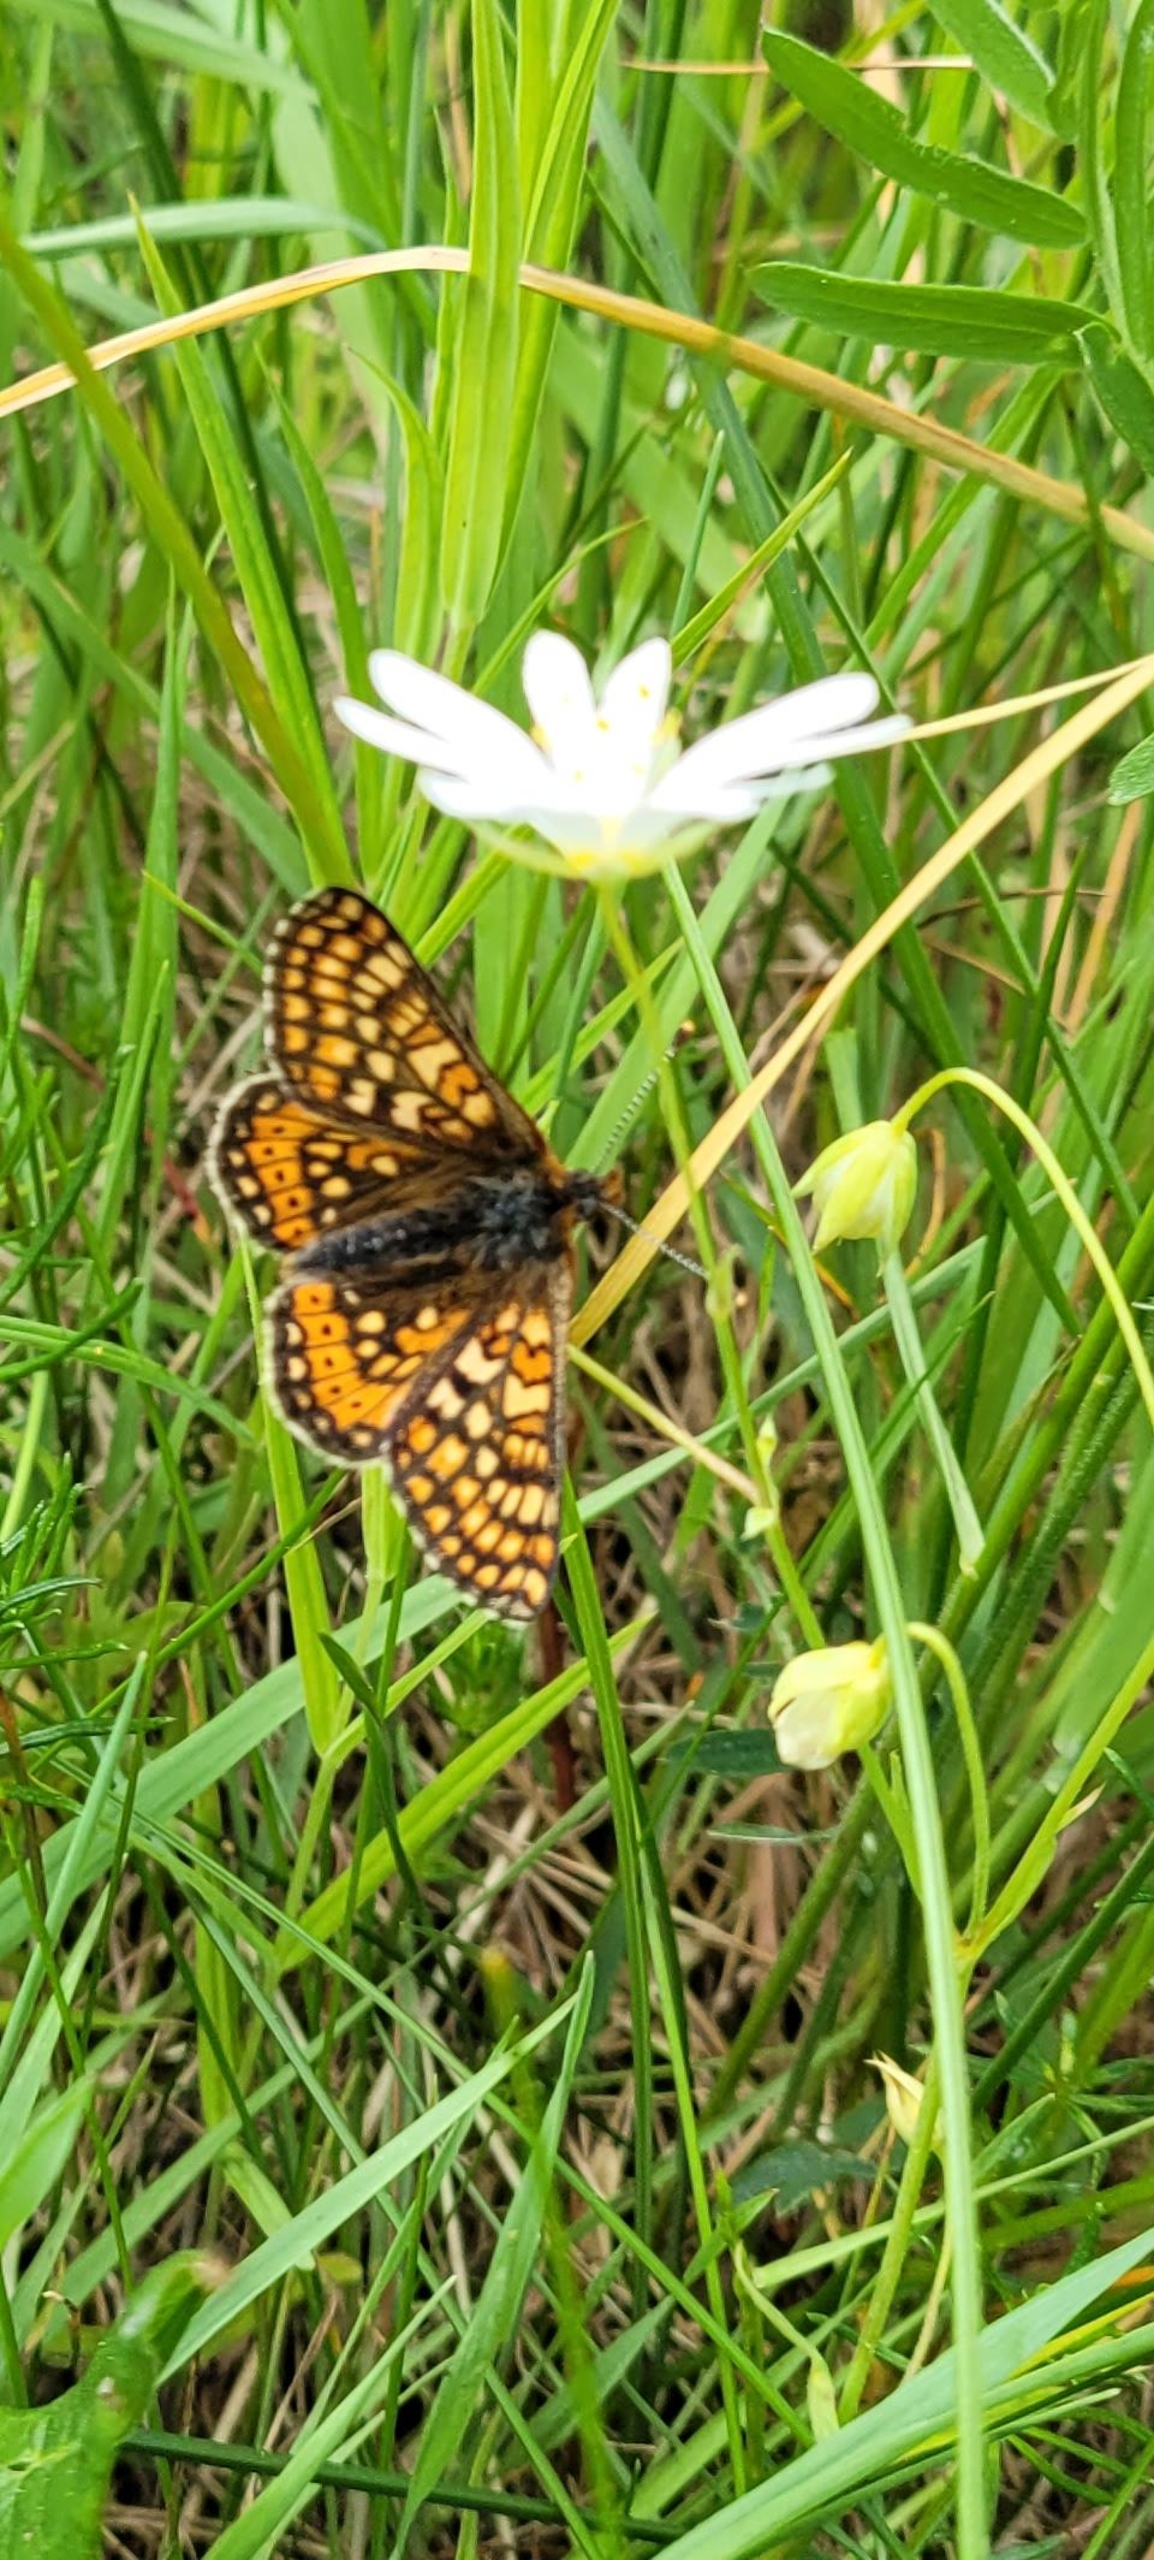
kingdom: Animalia
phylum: Arthropoda
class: Insecta
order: Lepidoptera
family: Nymphalidae
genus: Euphydryas
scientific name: Euphydryas aurinia
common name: Hedepletvinge
